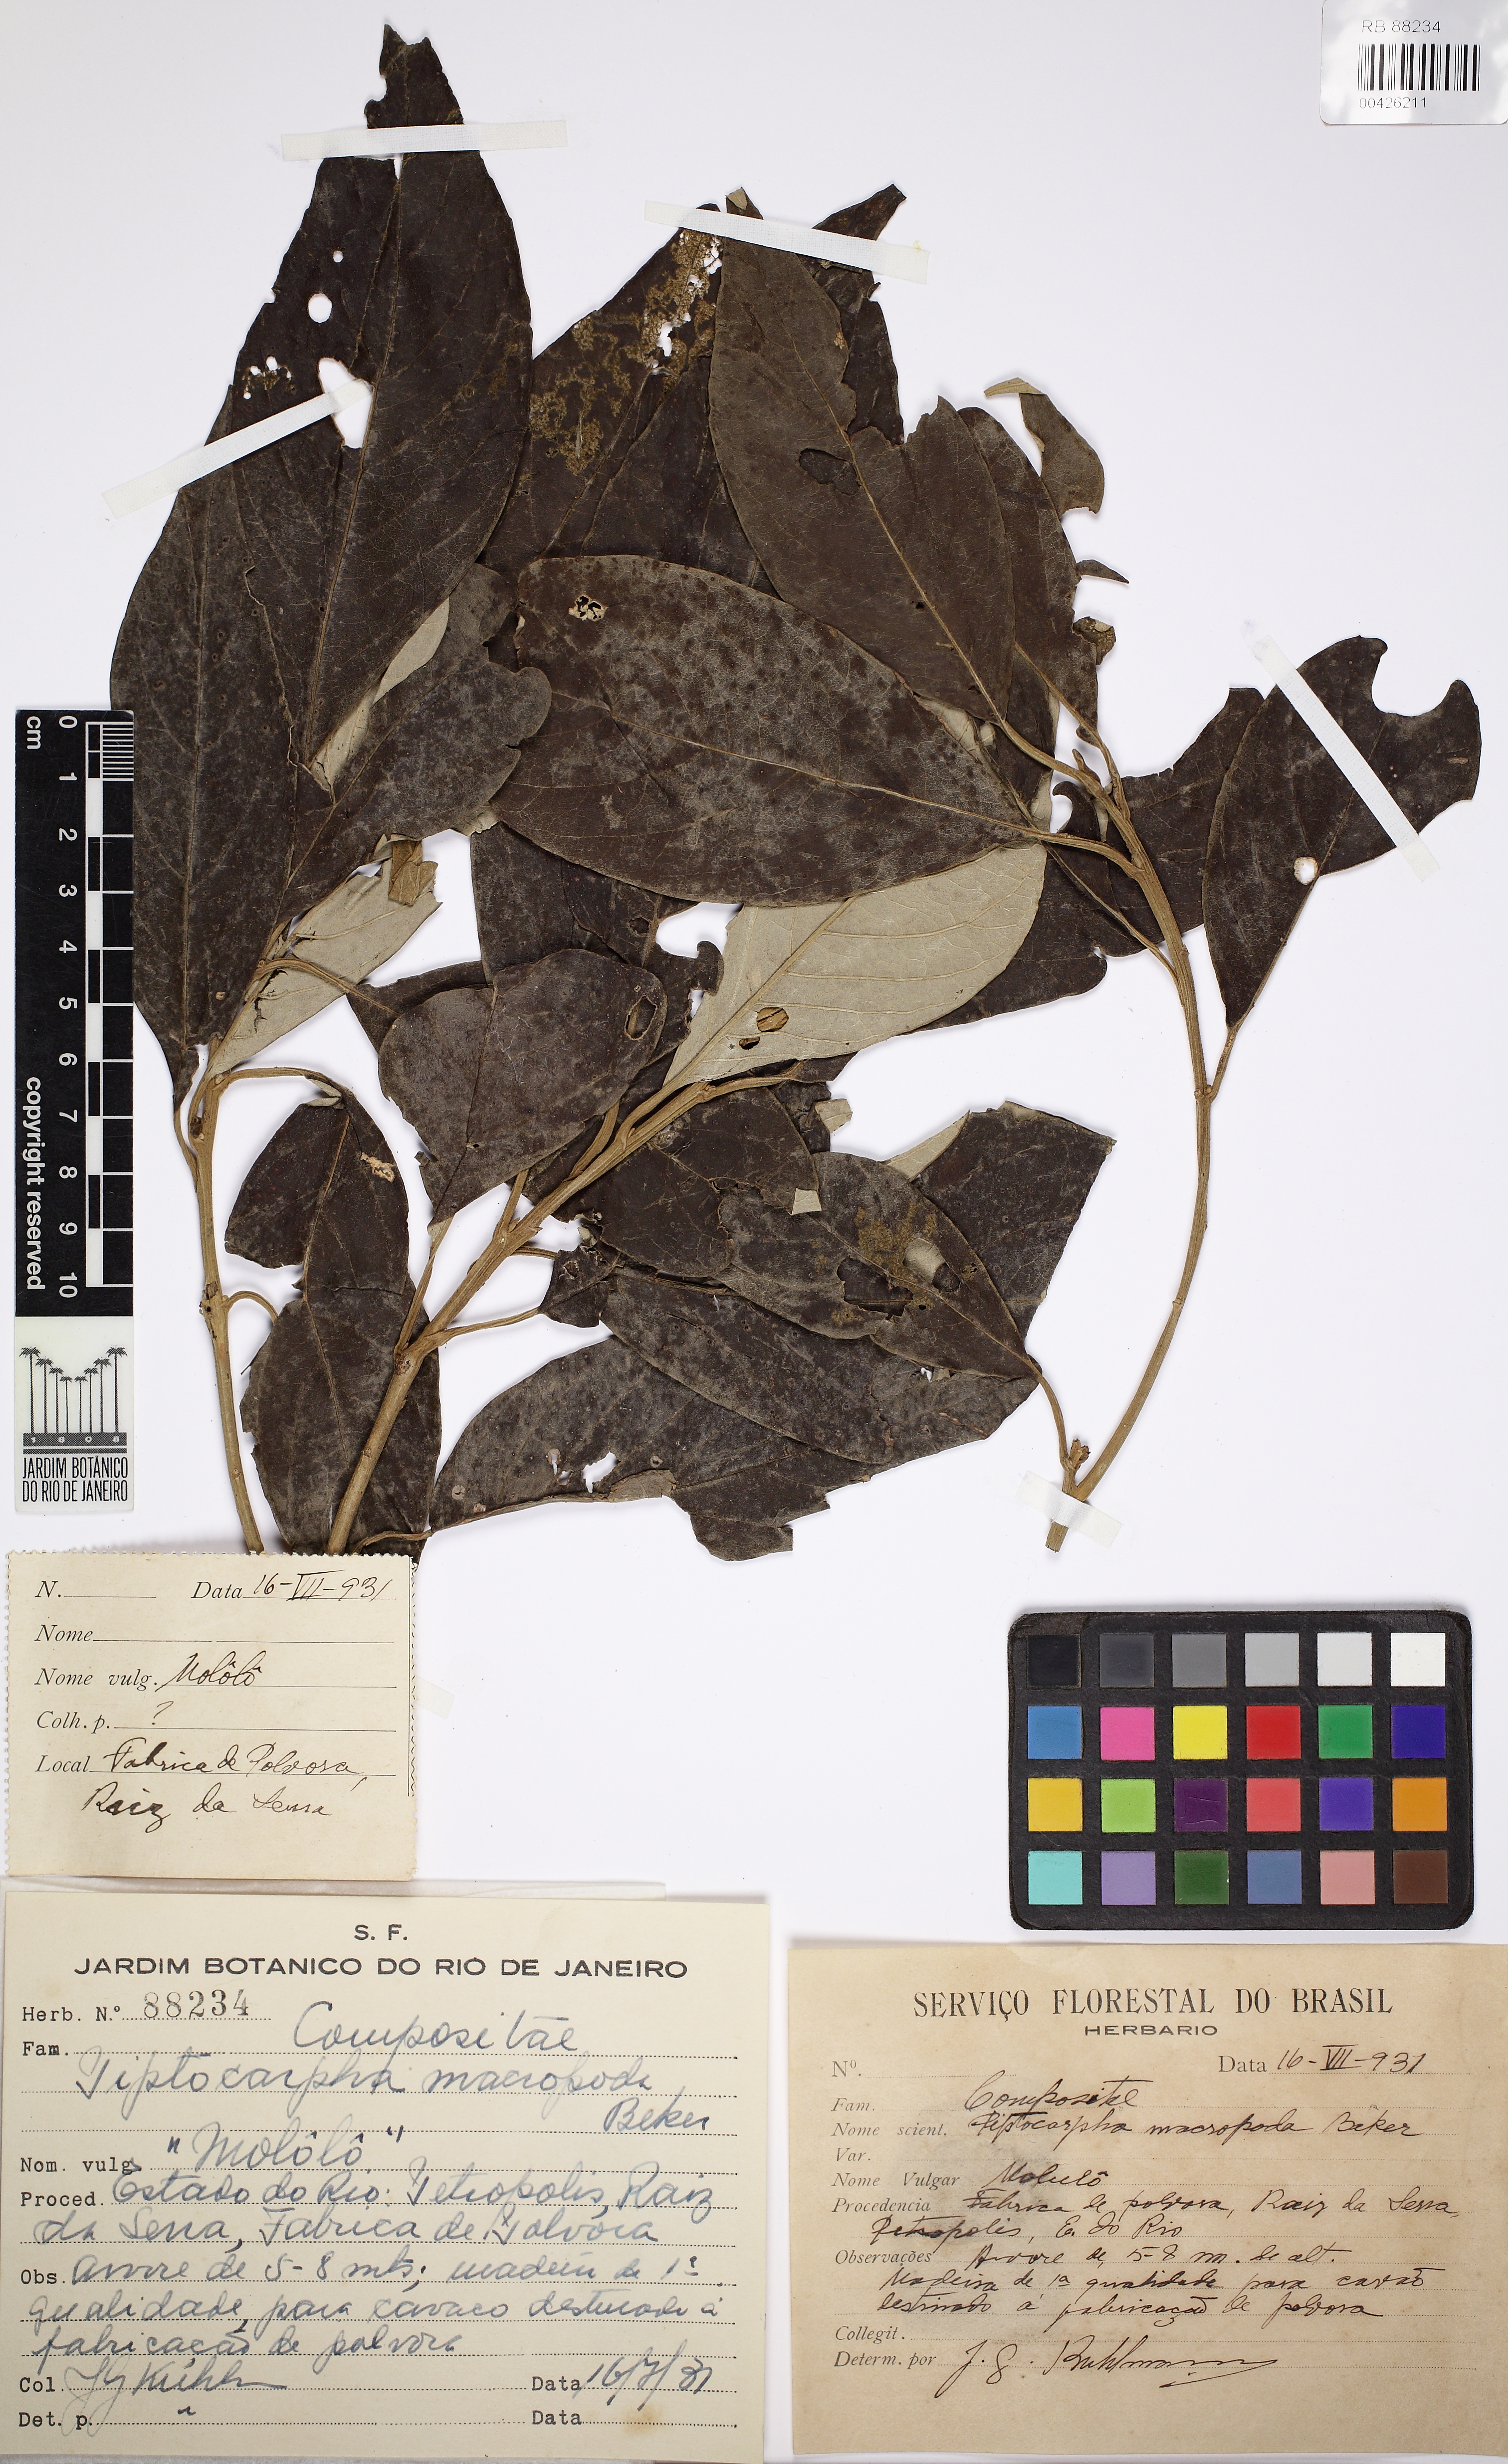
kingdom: Plantae
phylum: Tracheophyta
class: Magnoliopsida
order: Asterales
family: Asteraceae
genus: Piptocarpha
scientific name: Piptocarpha macropoda
